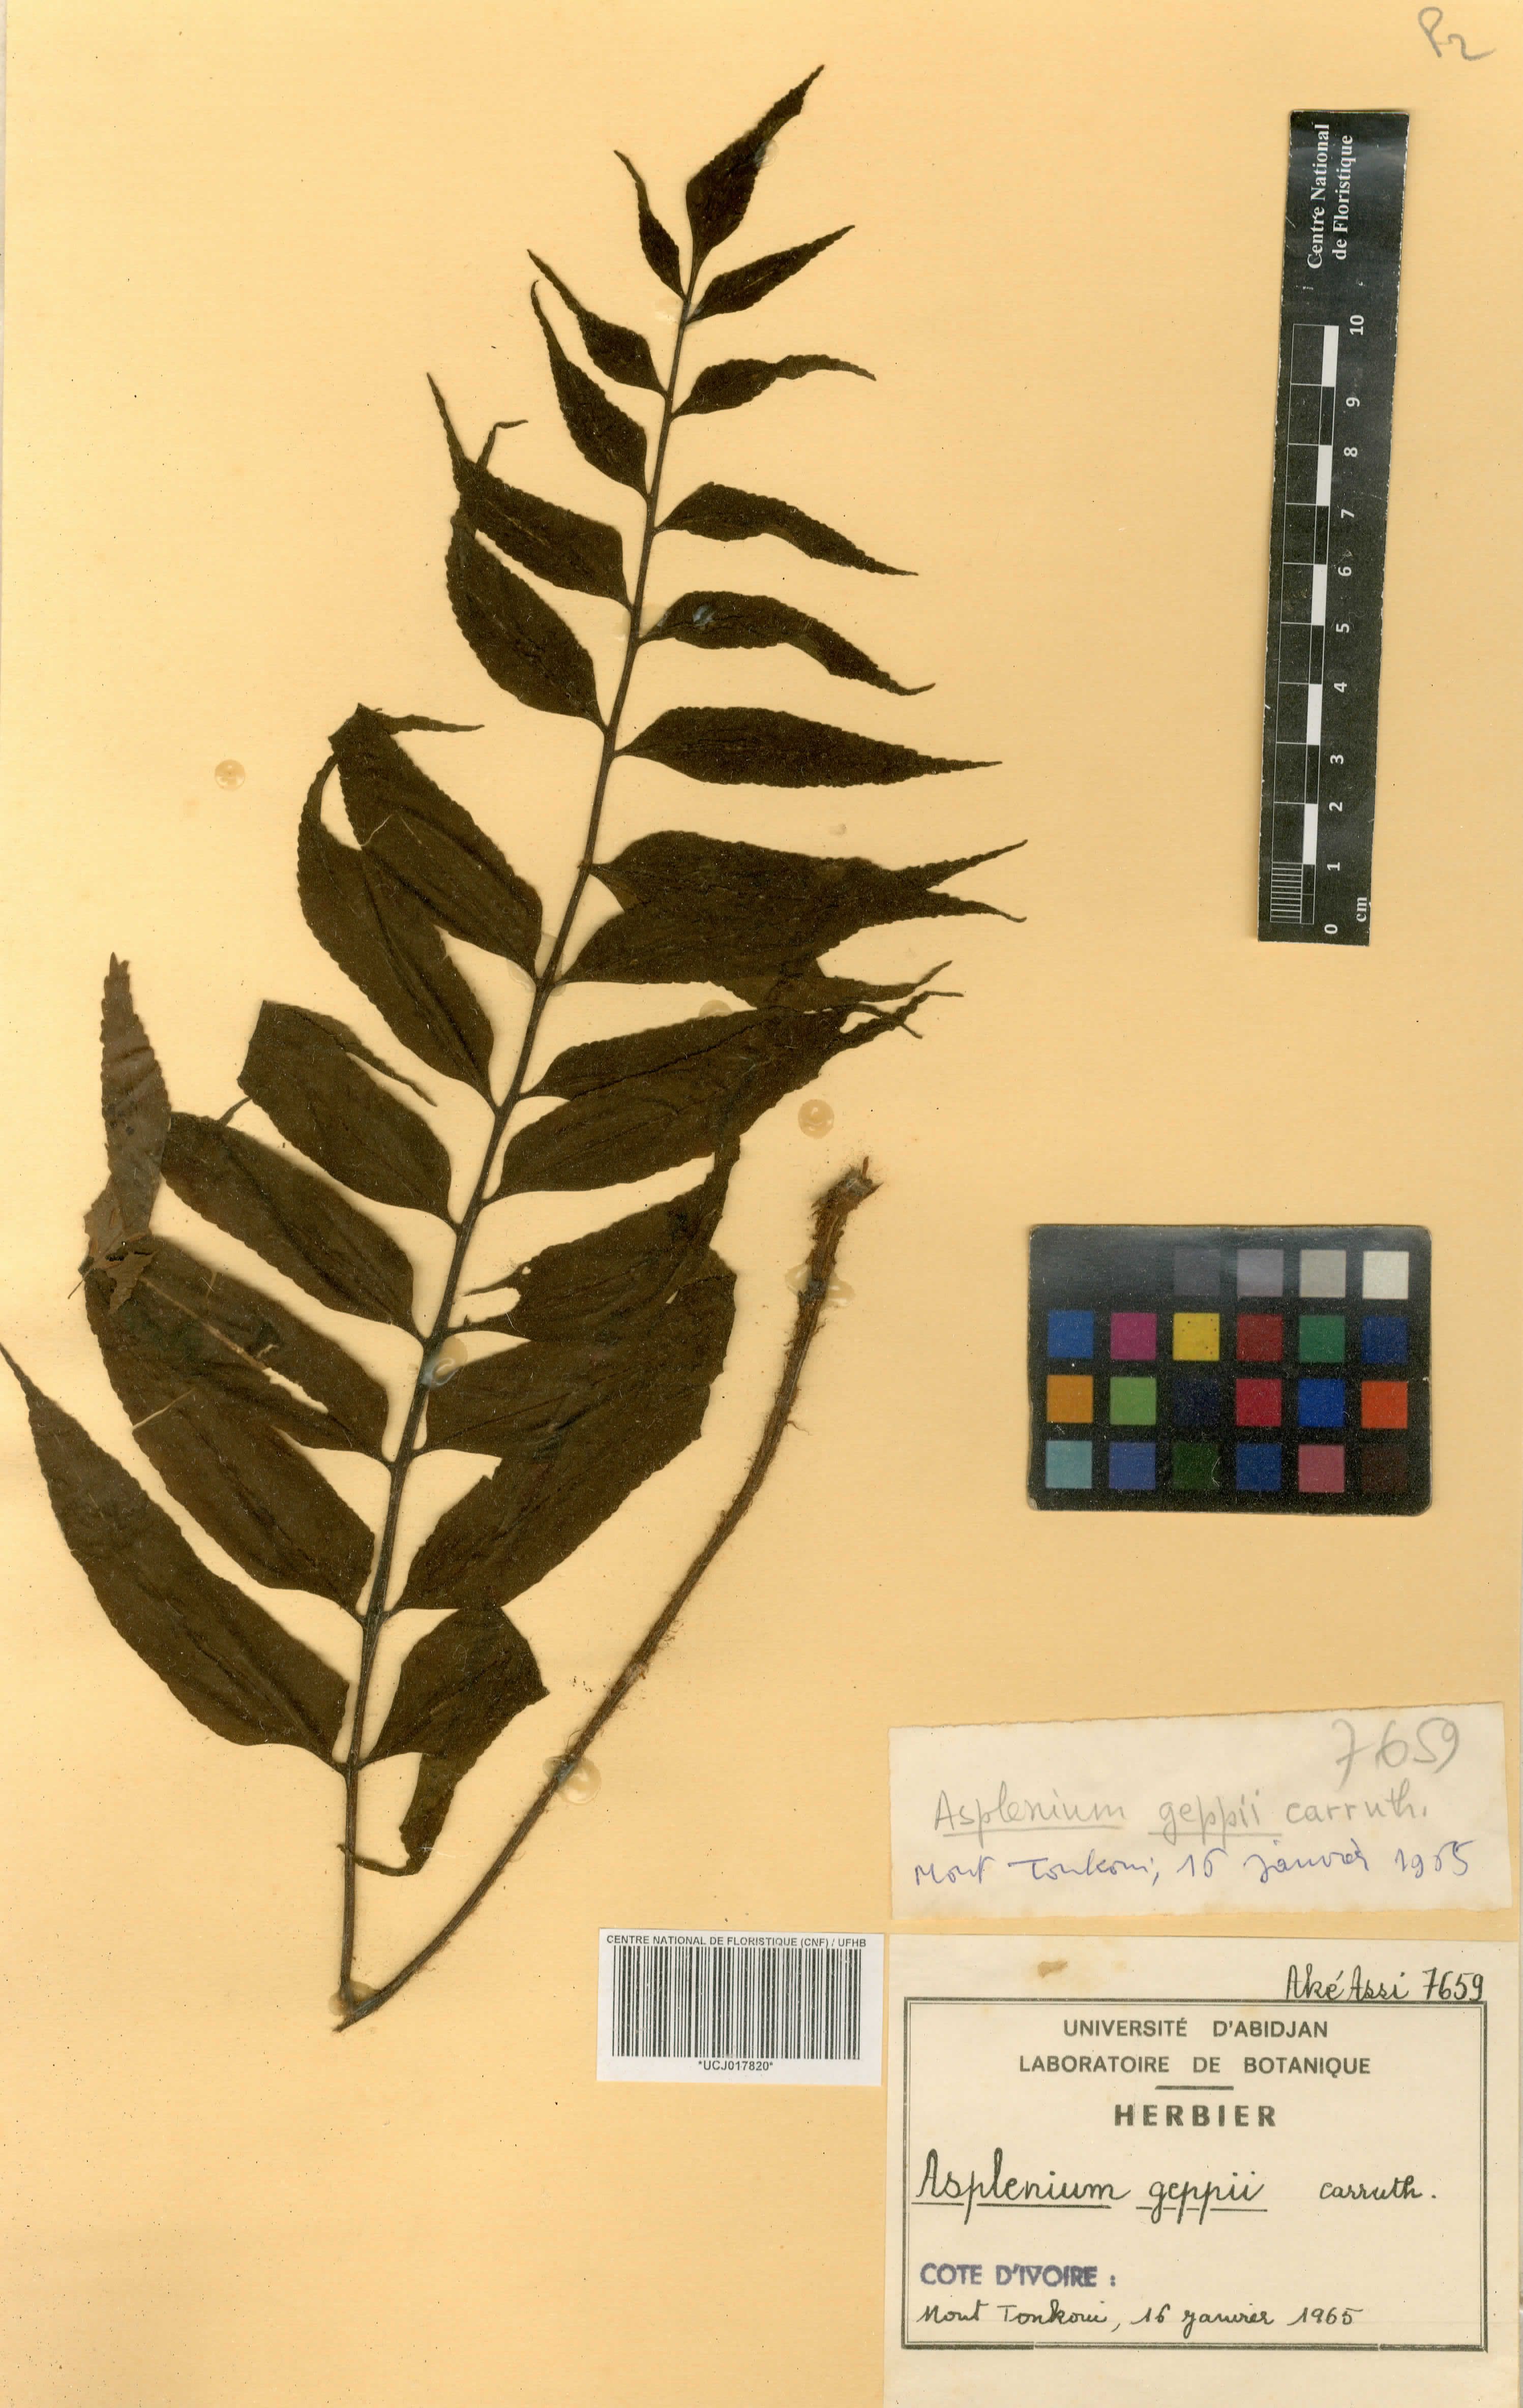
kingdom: Plantae
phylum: Tracheophyta
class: Polypodiopsida
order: Polypodiales
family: Aspleniaceae
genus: Asplenium
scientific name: Asplenium anisophyllum
